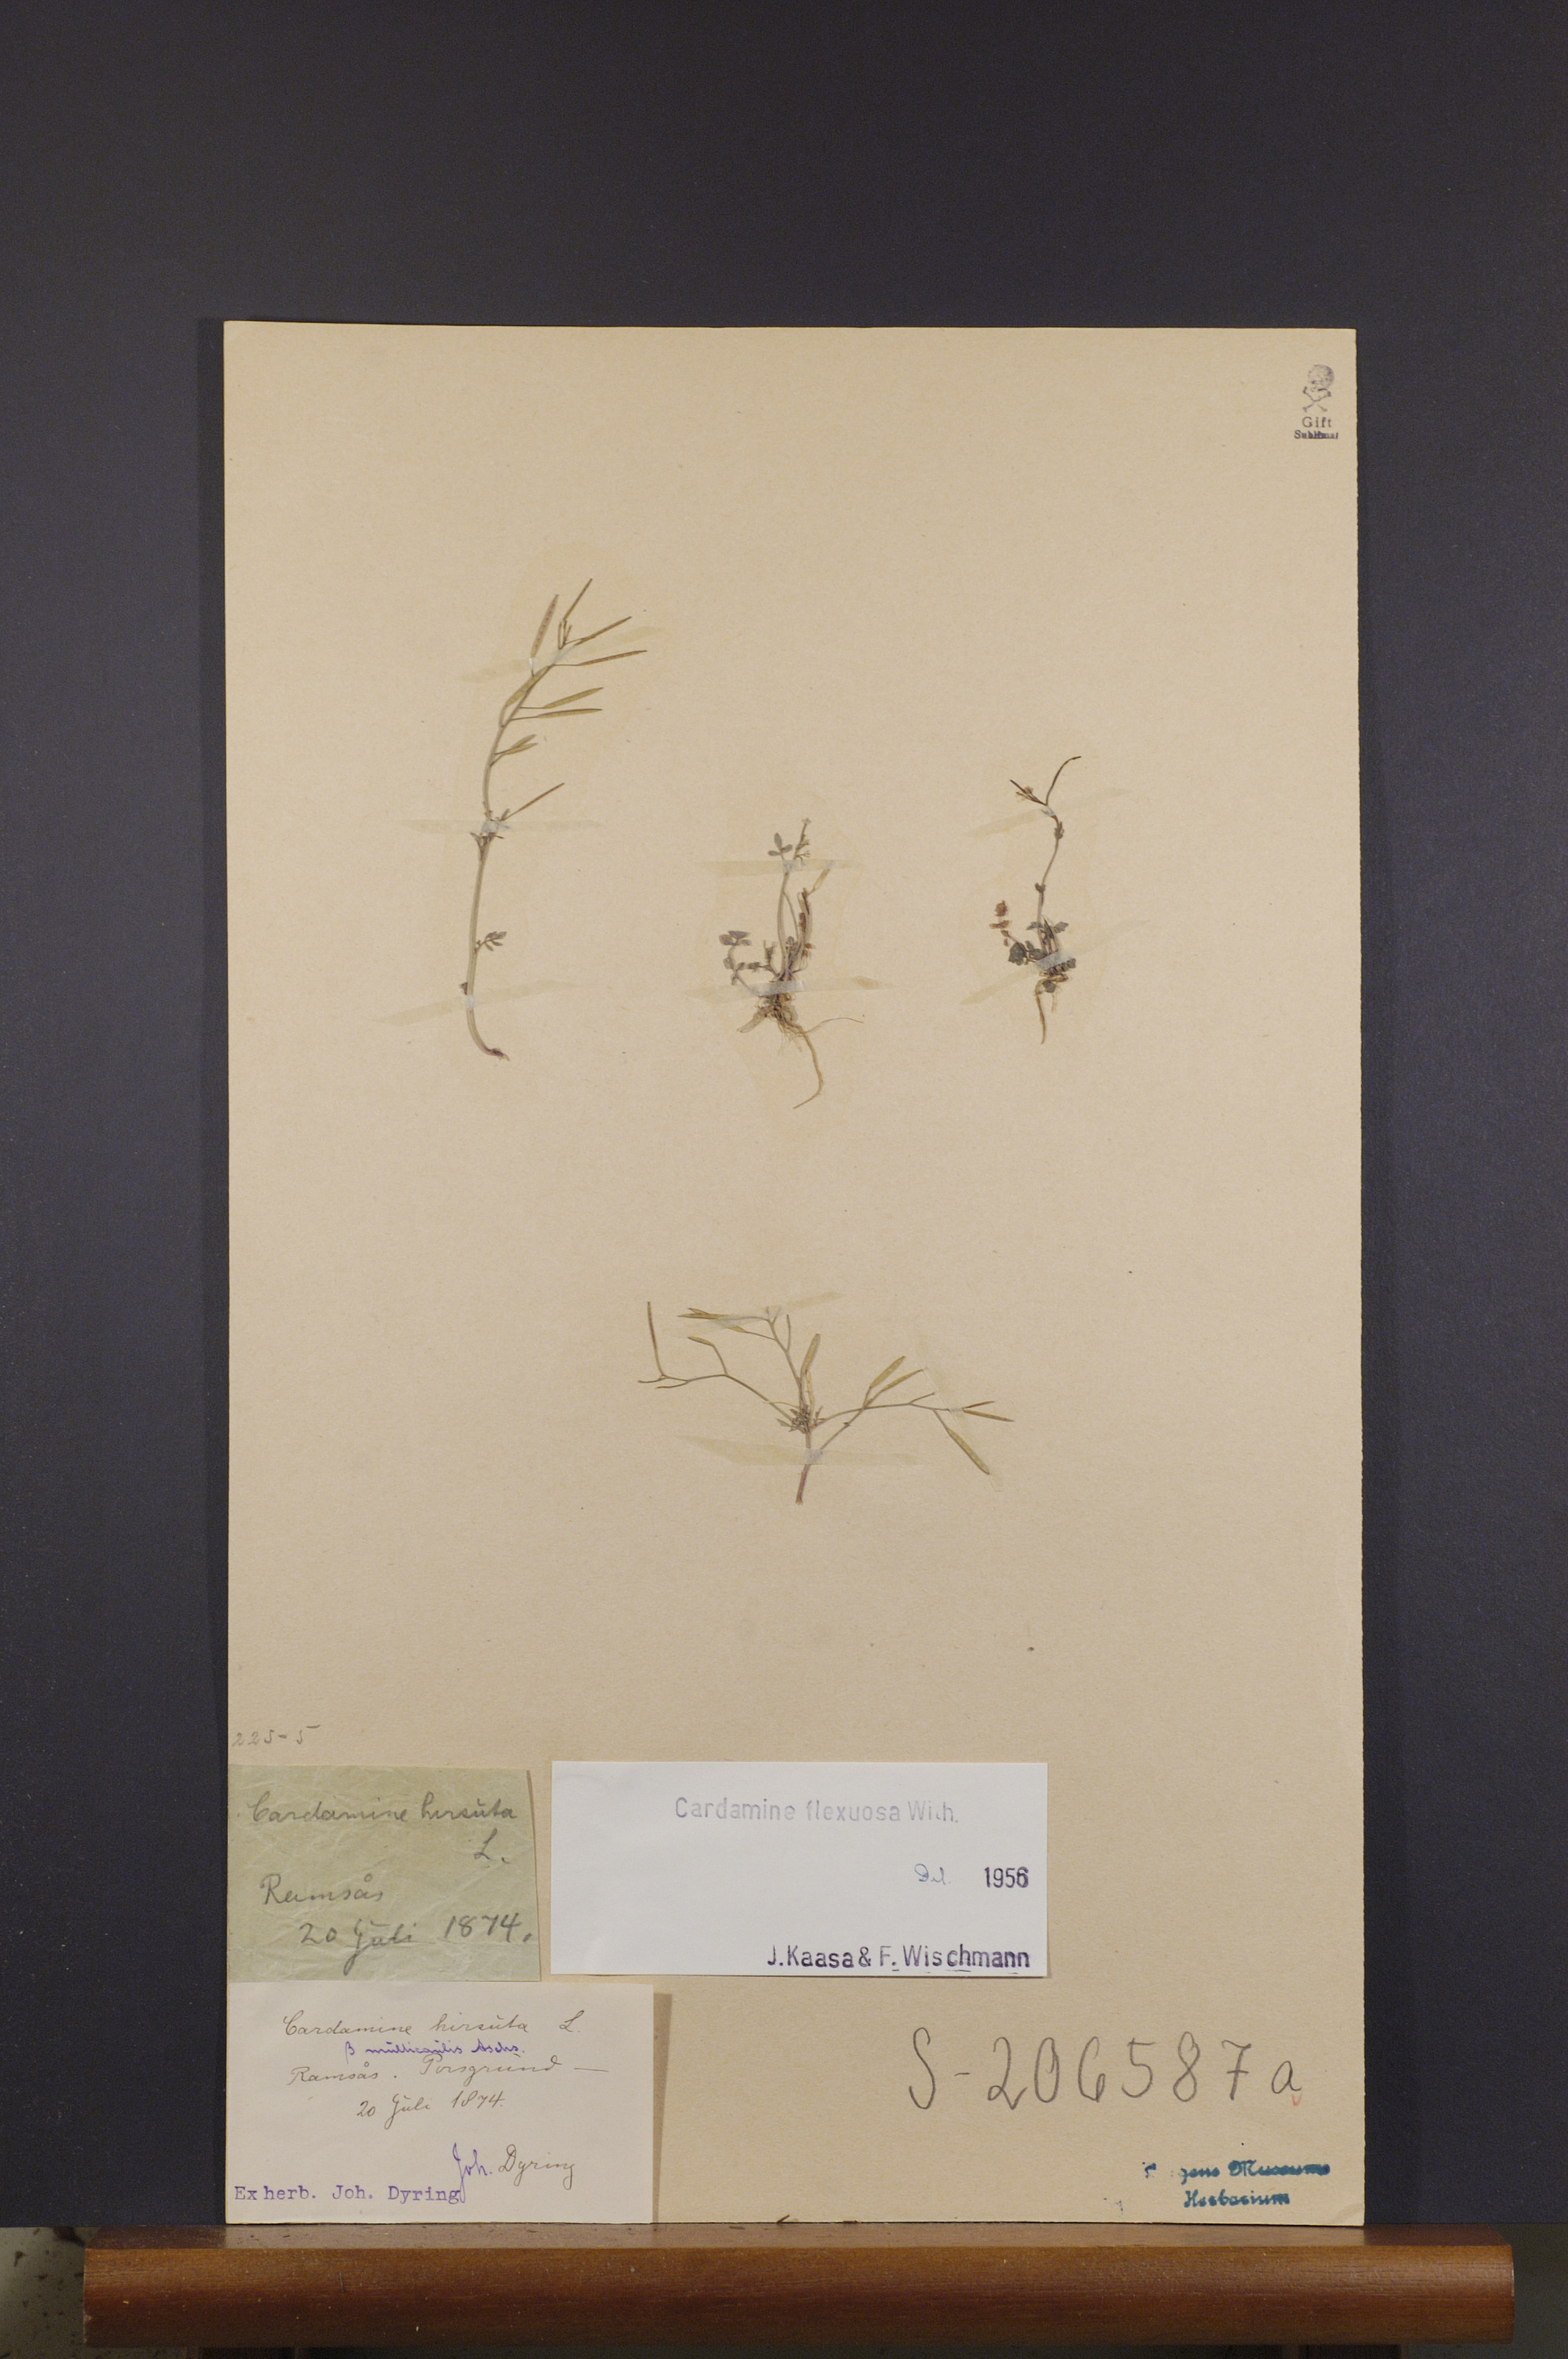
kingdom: Plantae
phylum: Tracheophyta
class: Magnoliopsida
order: Brassicales
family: Brassicaceae
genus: Cardamine
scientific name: Cardamine flexuosa
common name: Woodland bittercress
